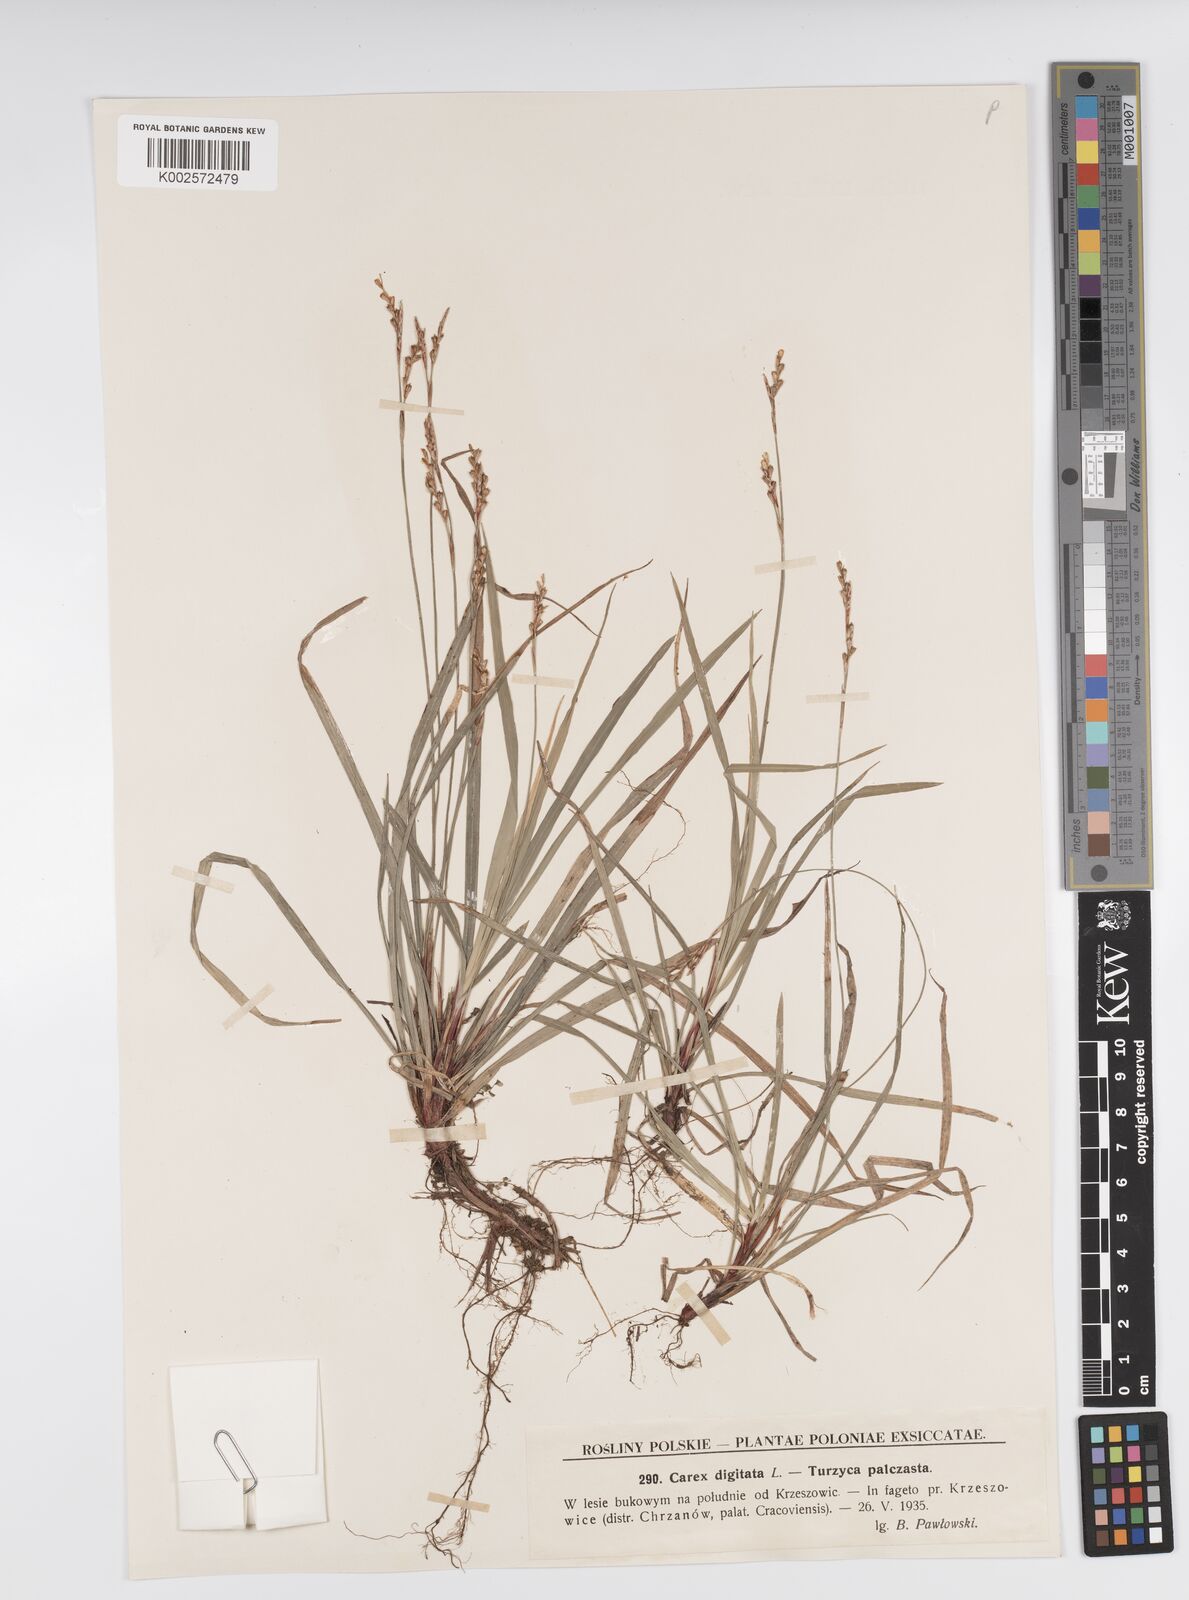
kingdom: Plantae
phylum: Tracheophyta
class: Liliopsida
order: Poales
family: Cyperaceae
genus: Carex
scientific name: Carex digitata
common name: Fingered sedge
